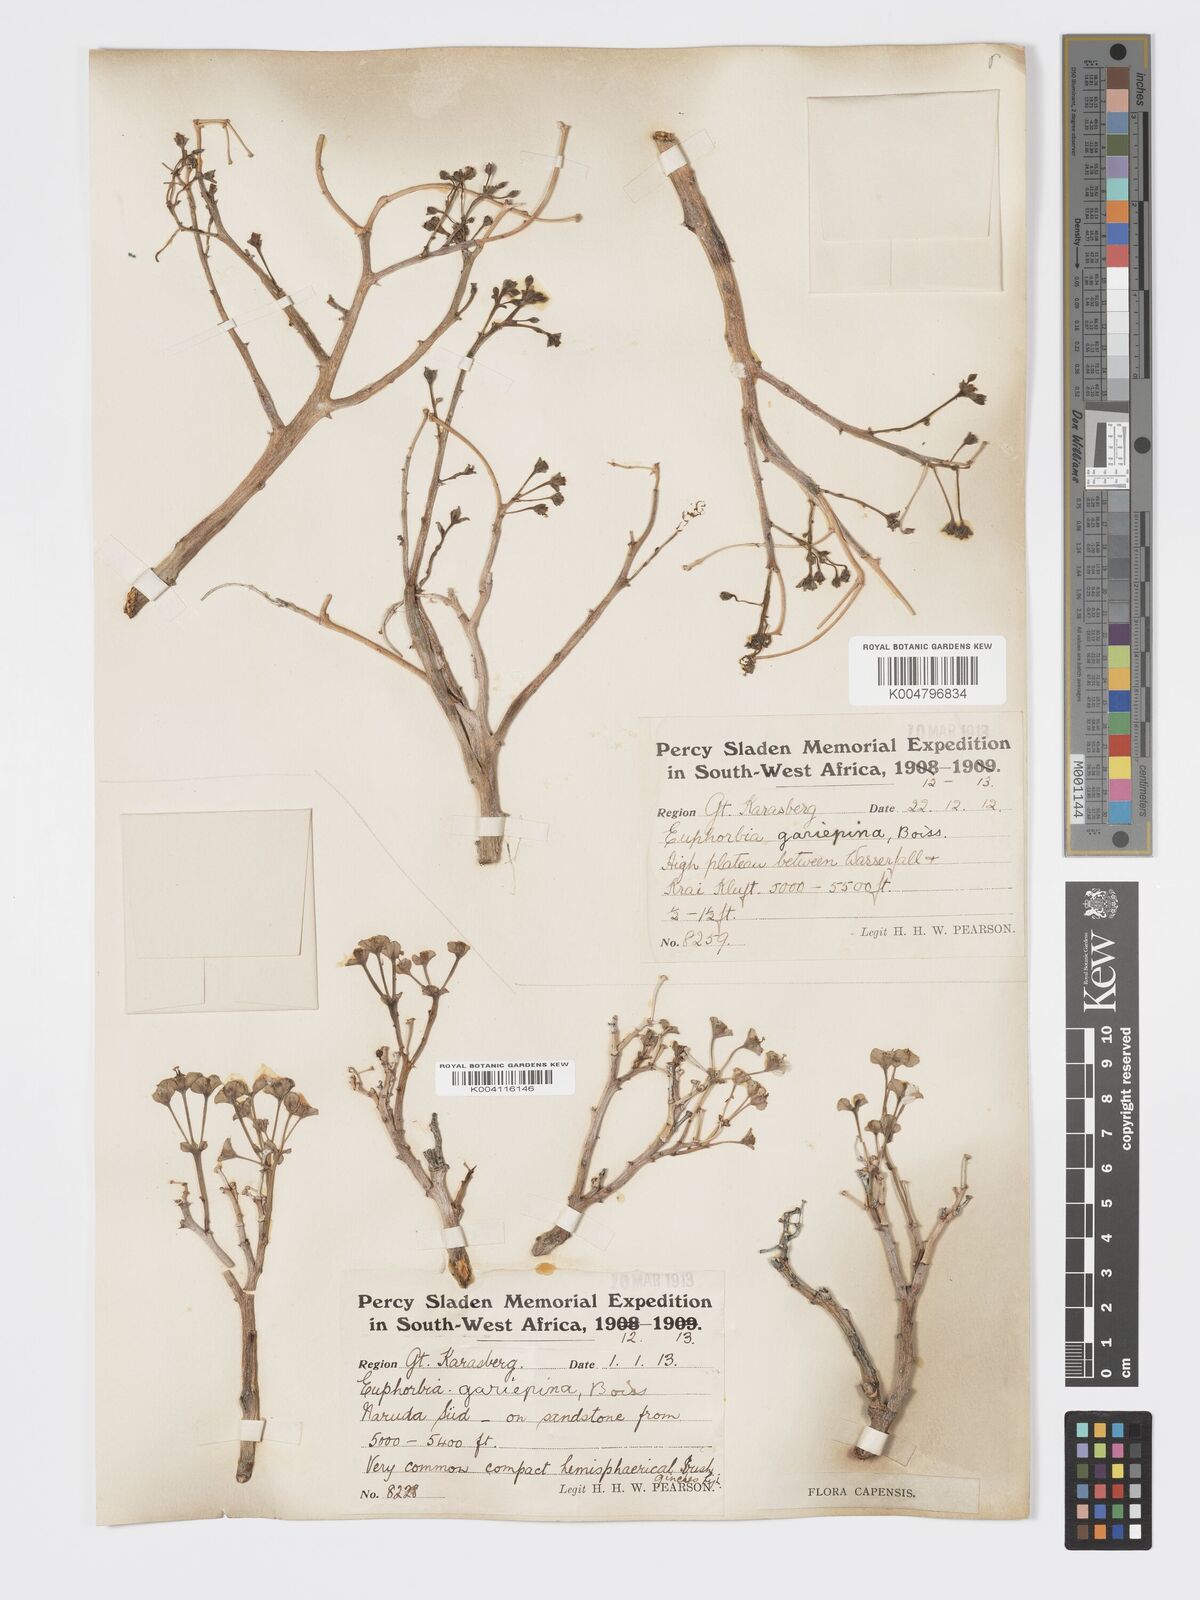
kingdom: Plantae
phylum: Tracheophyta
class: Magnoliopsida
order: Malpighiales
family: Euphorbiaceae
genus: Euphorbia
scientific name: Euphorbia gariepina
